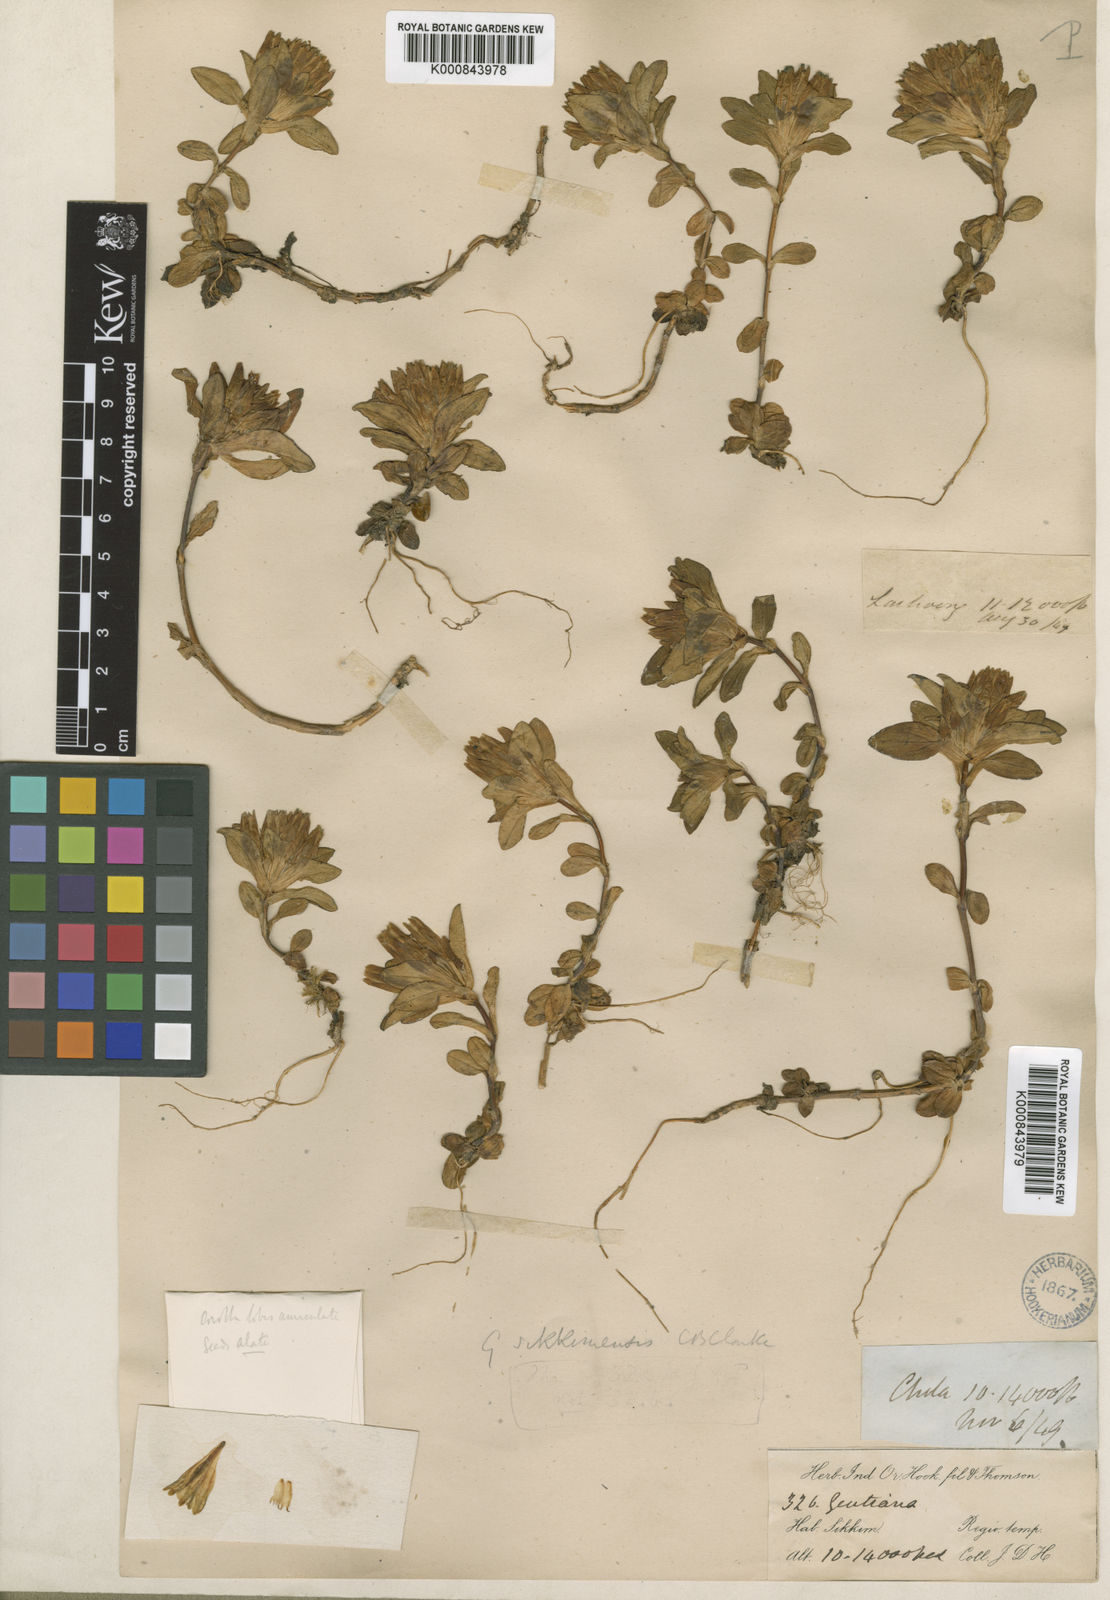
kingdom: Plantae
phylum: Tracheophyta
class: Magnoliopsida
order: Gentianales
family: Gentianaceae
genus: Gentiana
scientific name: Gentiana sikkimensis
